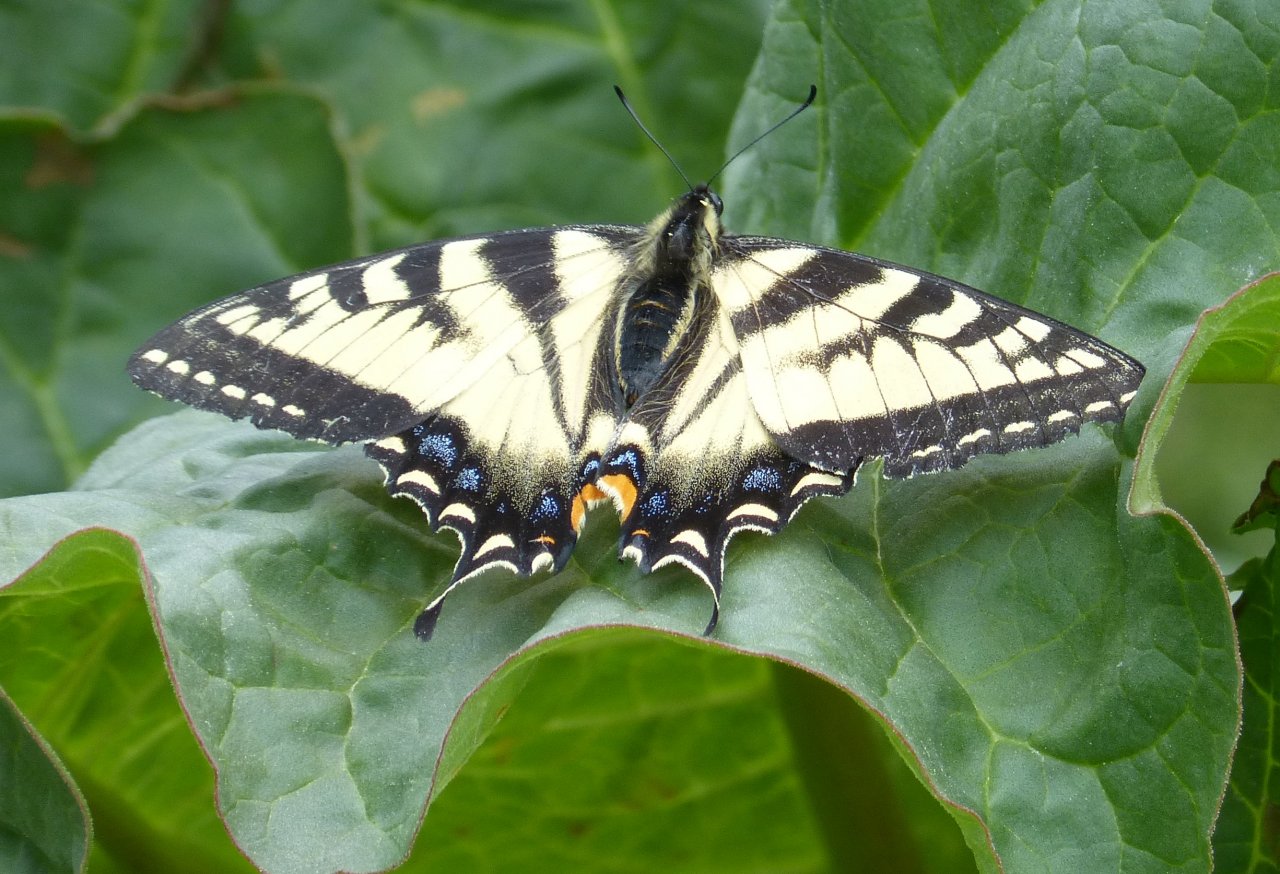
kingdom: Animalia
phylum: Arthropoda
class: Insecta
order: Lepidoptera
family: Papilionidae
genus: Pterourus
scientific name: Pterourus canadensis
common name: Canadian Tiger Swallowtail
